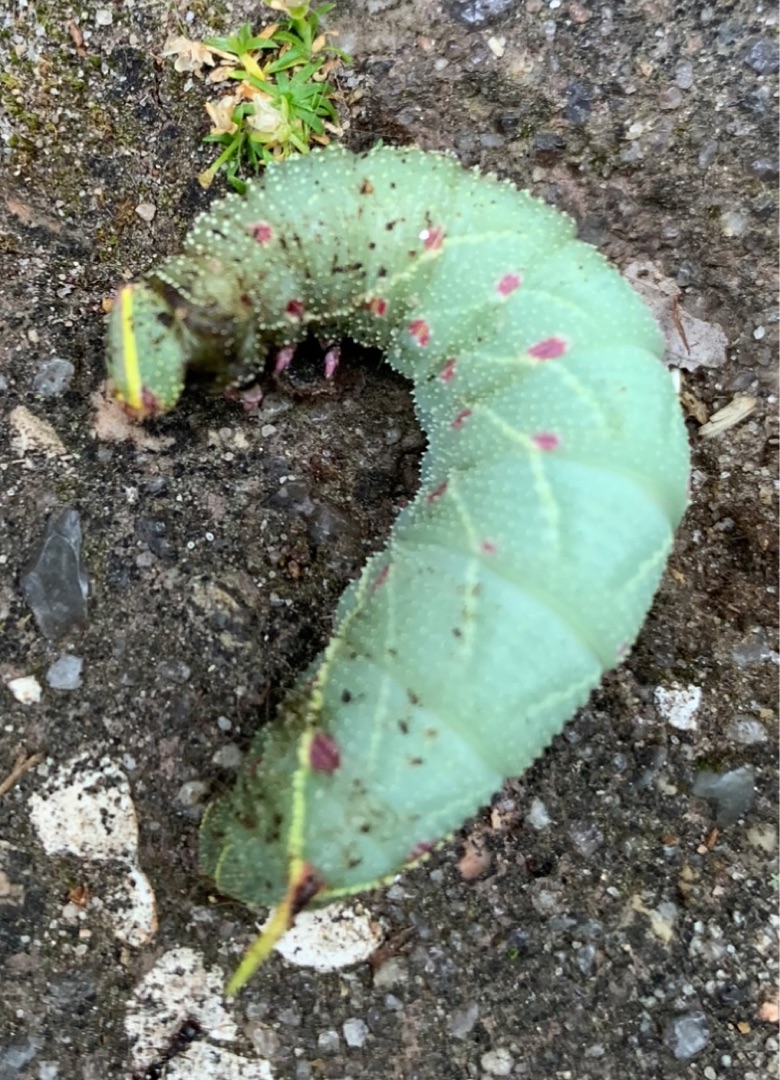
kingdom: Animalia
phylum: Arthropoda
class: Insecta
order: Lepidoptera
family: Sphingidae
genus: Laothoe
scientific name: Laothoe populi
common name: Poppelsværmer
